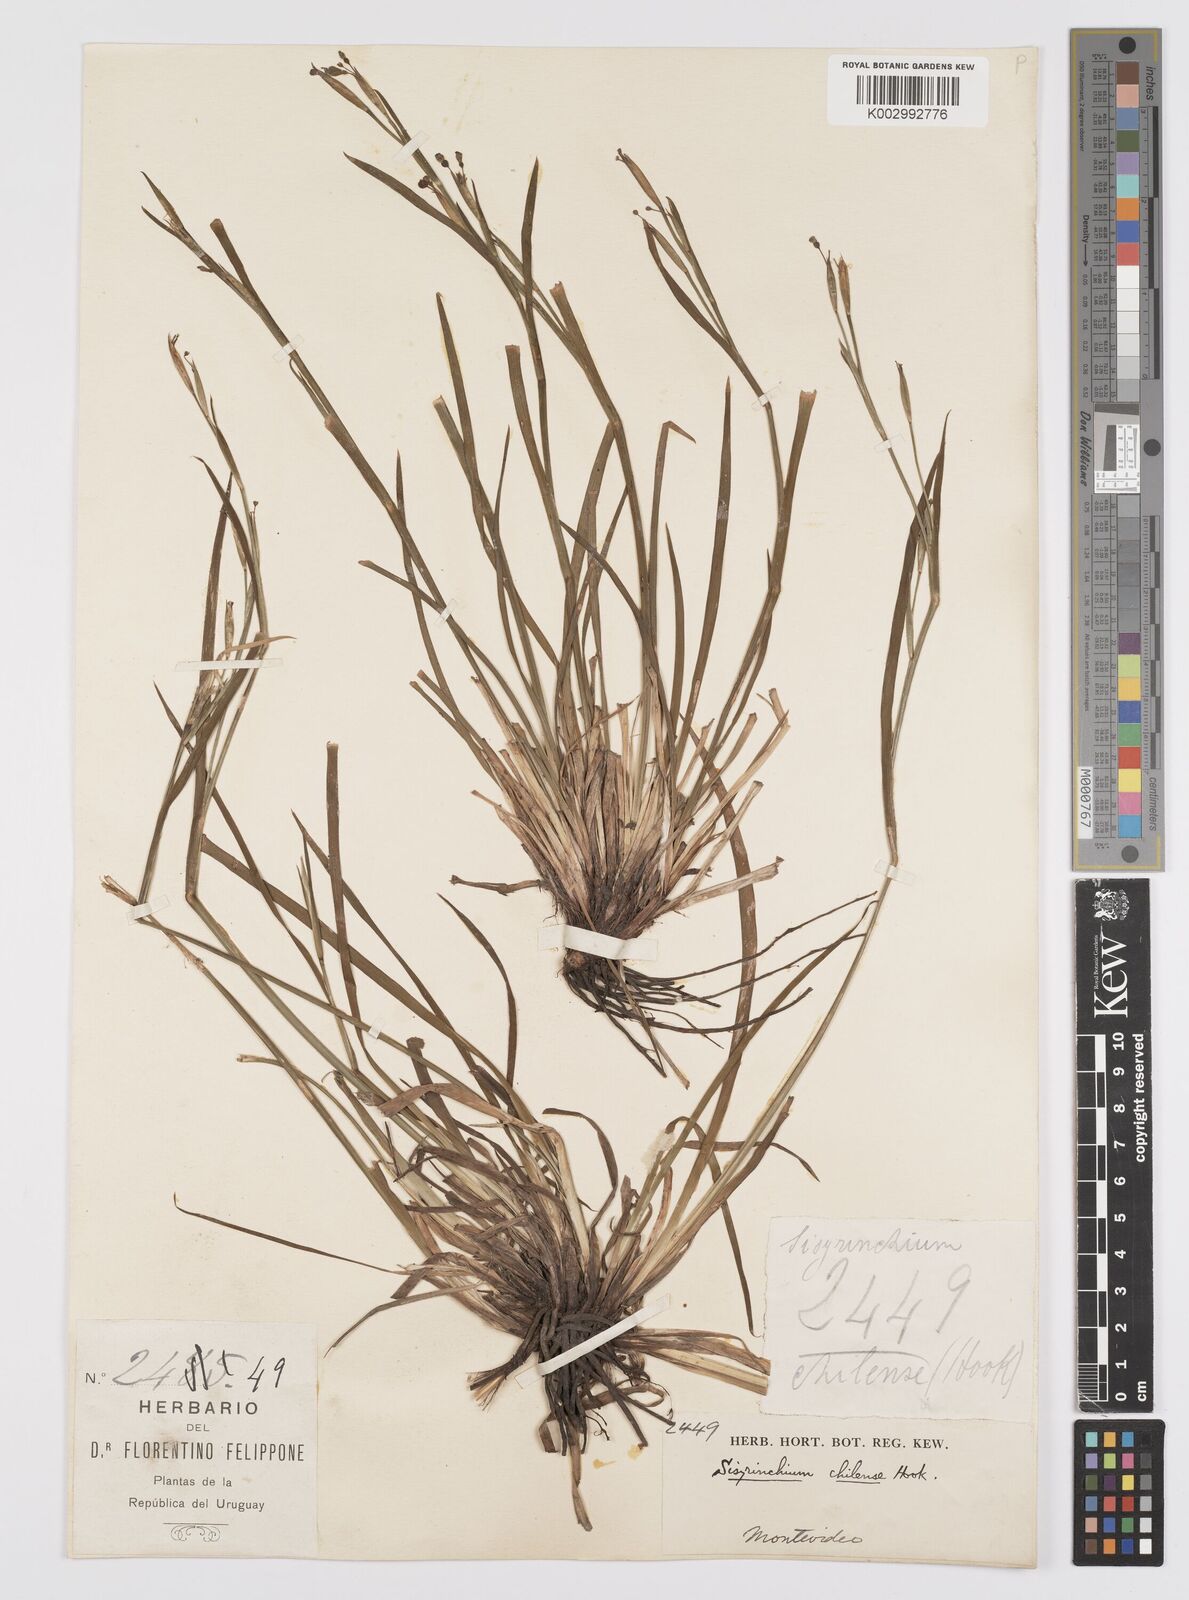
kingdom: Plantae
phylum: Tracheophyta
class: Liliopsida
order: Asparagales
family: Iridaceae
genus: Sisyrinchium
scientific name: Sisyrinchium chilense
